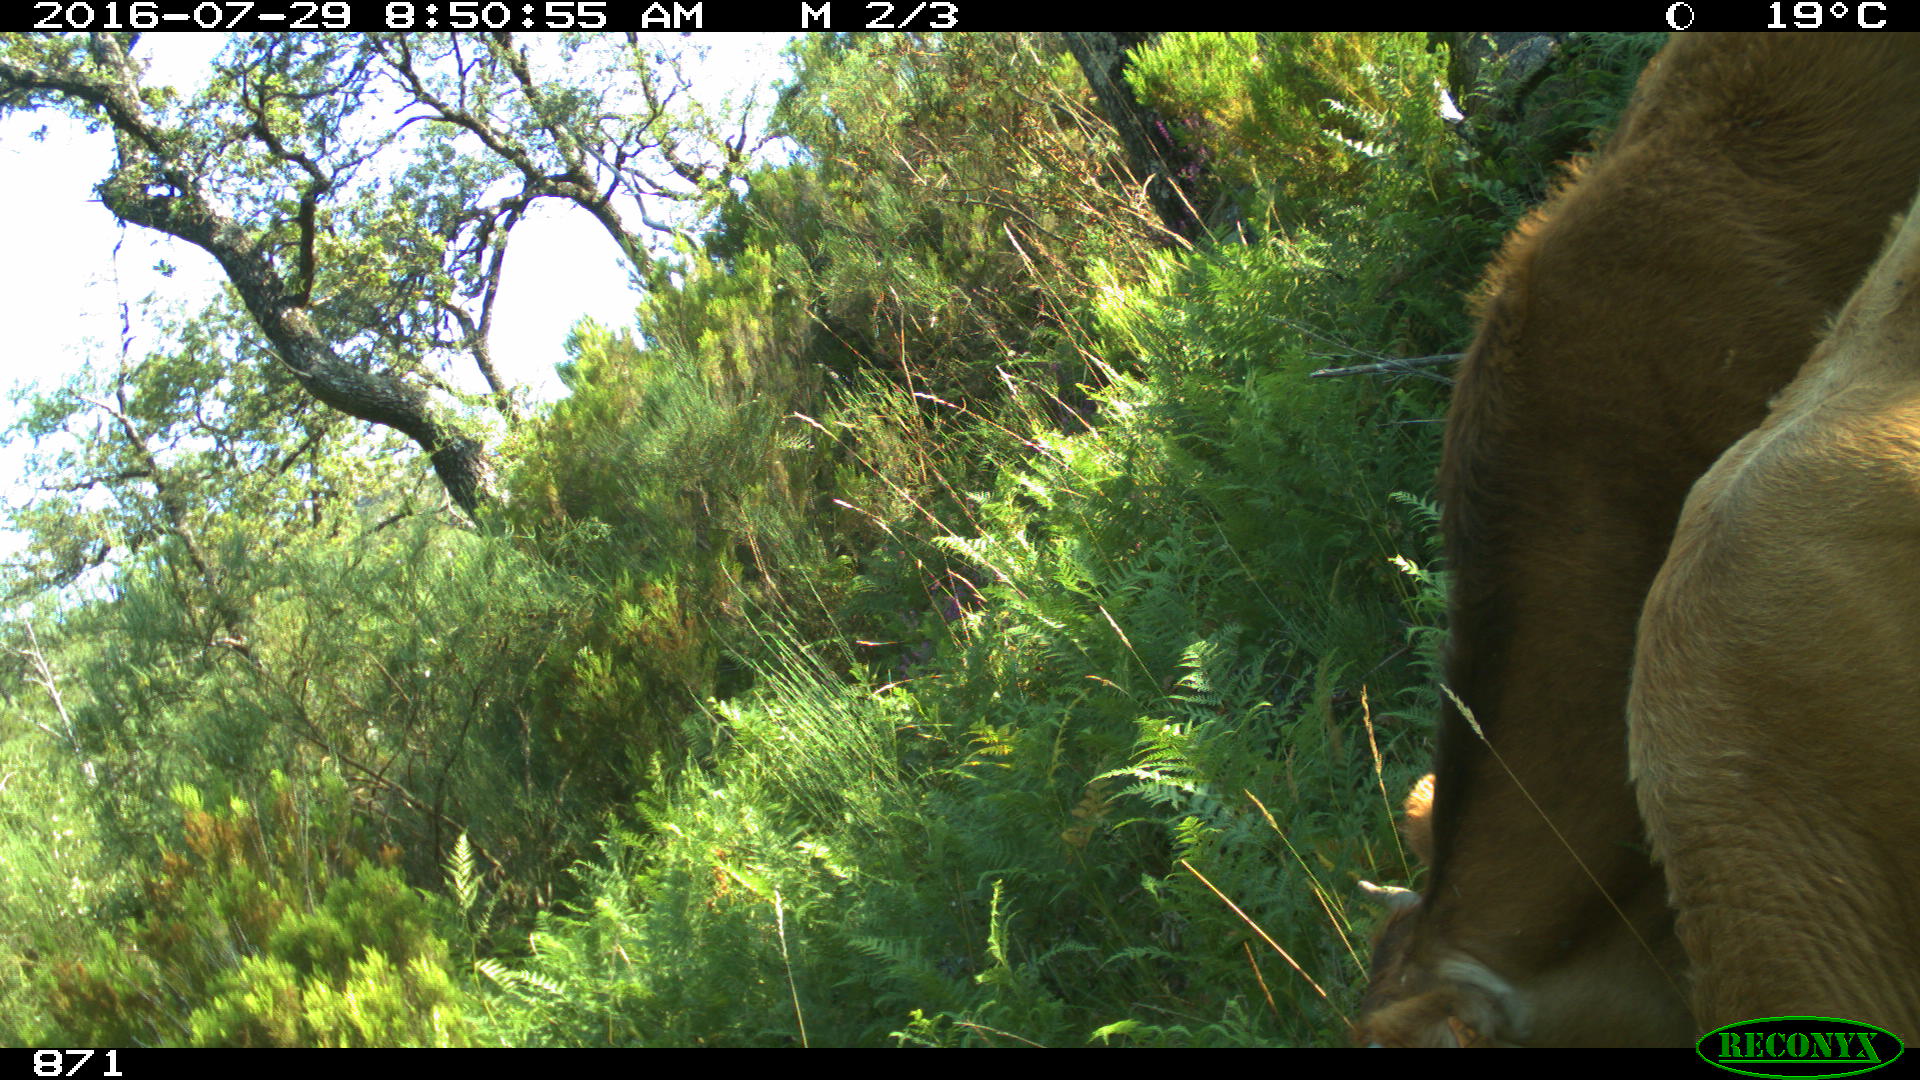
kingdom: Animalia
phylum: Chordata
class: Mammalia
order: Artiodactyla
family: Bovidae
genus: Bos
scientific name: Bos taurus
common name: Domesticated cattle
